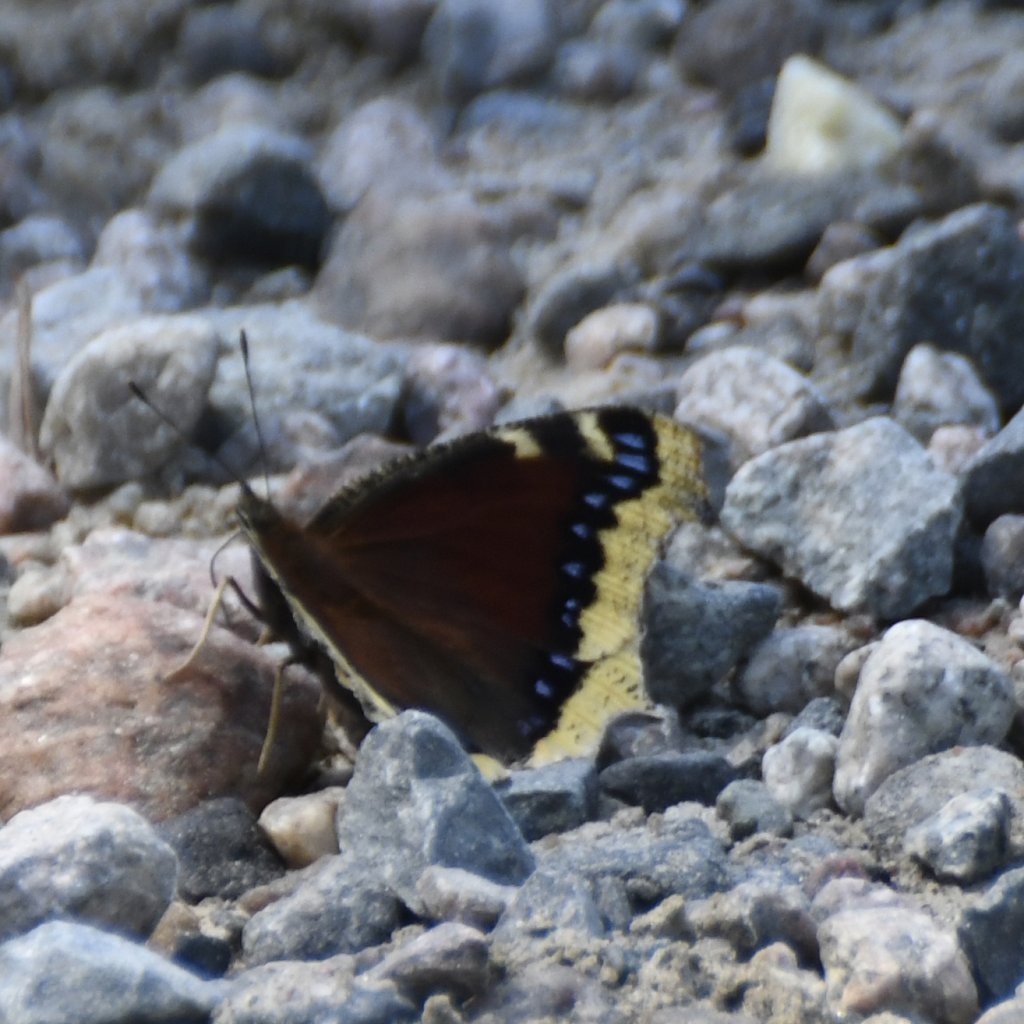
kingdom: Animalia
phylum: Arthropoda
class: Insecta
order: Lepidoptera
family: Nymphalidae
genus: Nymphalis
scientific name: Nymphalis antiopa
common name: Mourning Cloak
